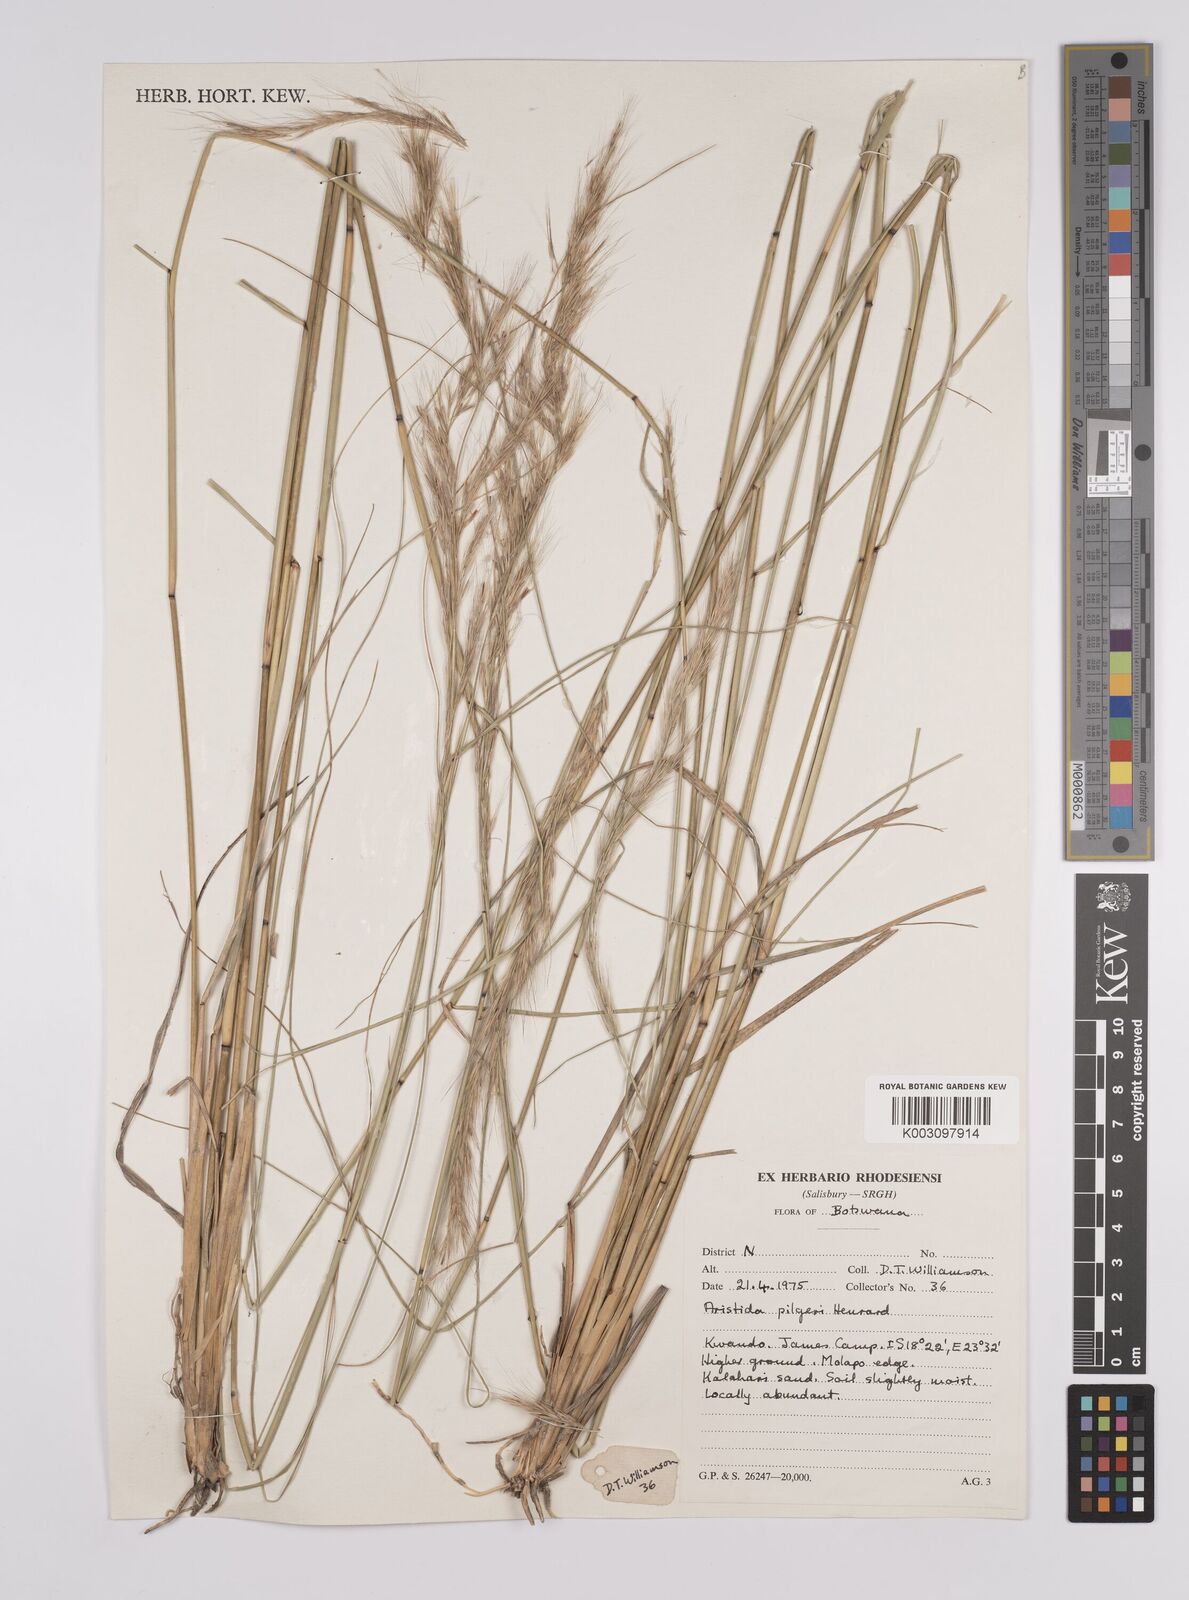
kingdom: Plantae
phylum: Tracheophyta
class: Liliopsida
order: Poales
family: Poaceae
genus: Aristida
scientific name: Aristida pilgeri
